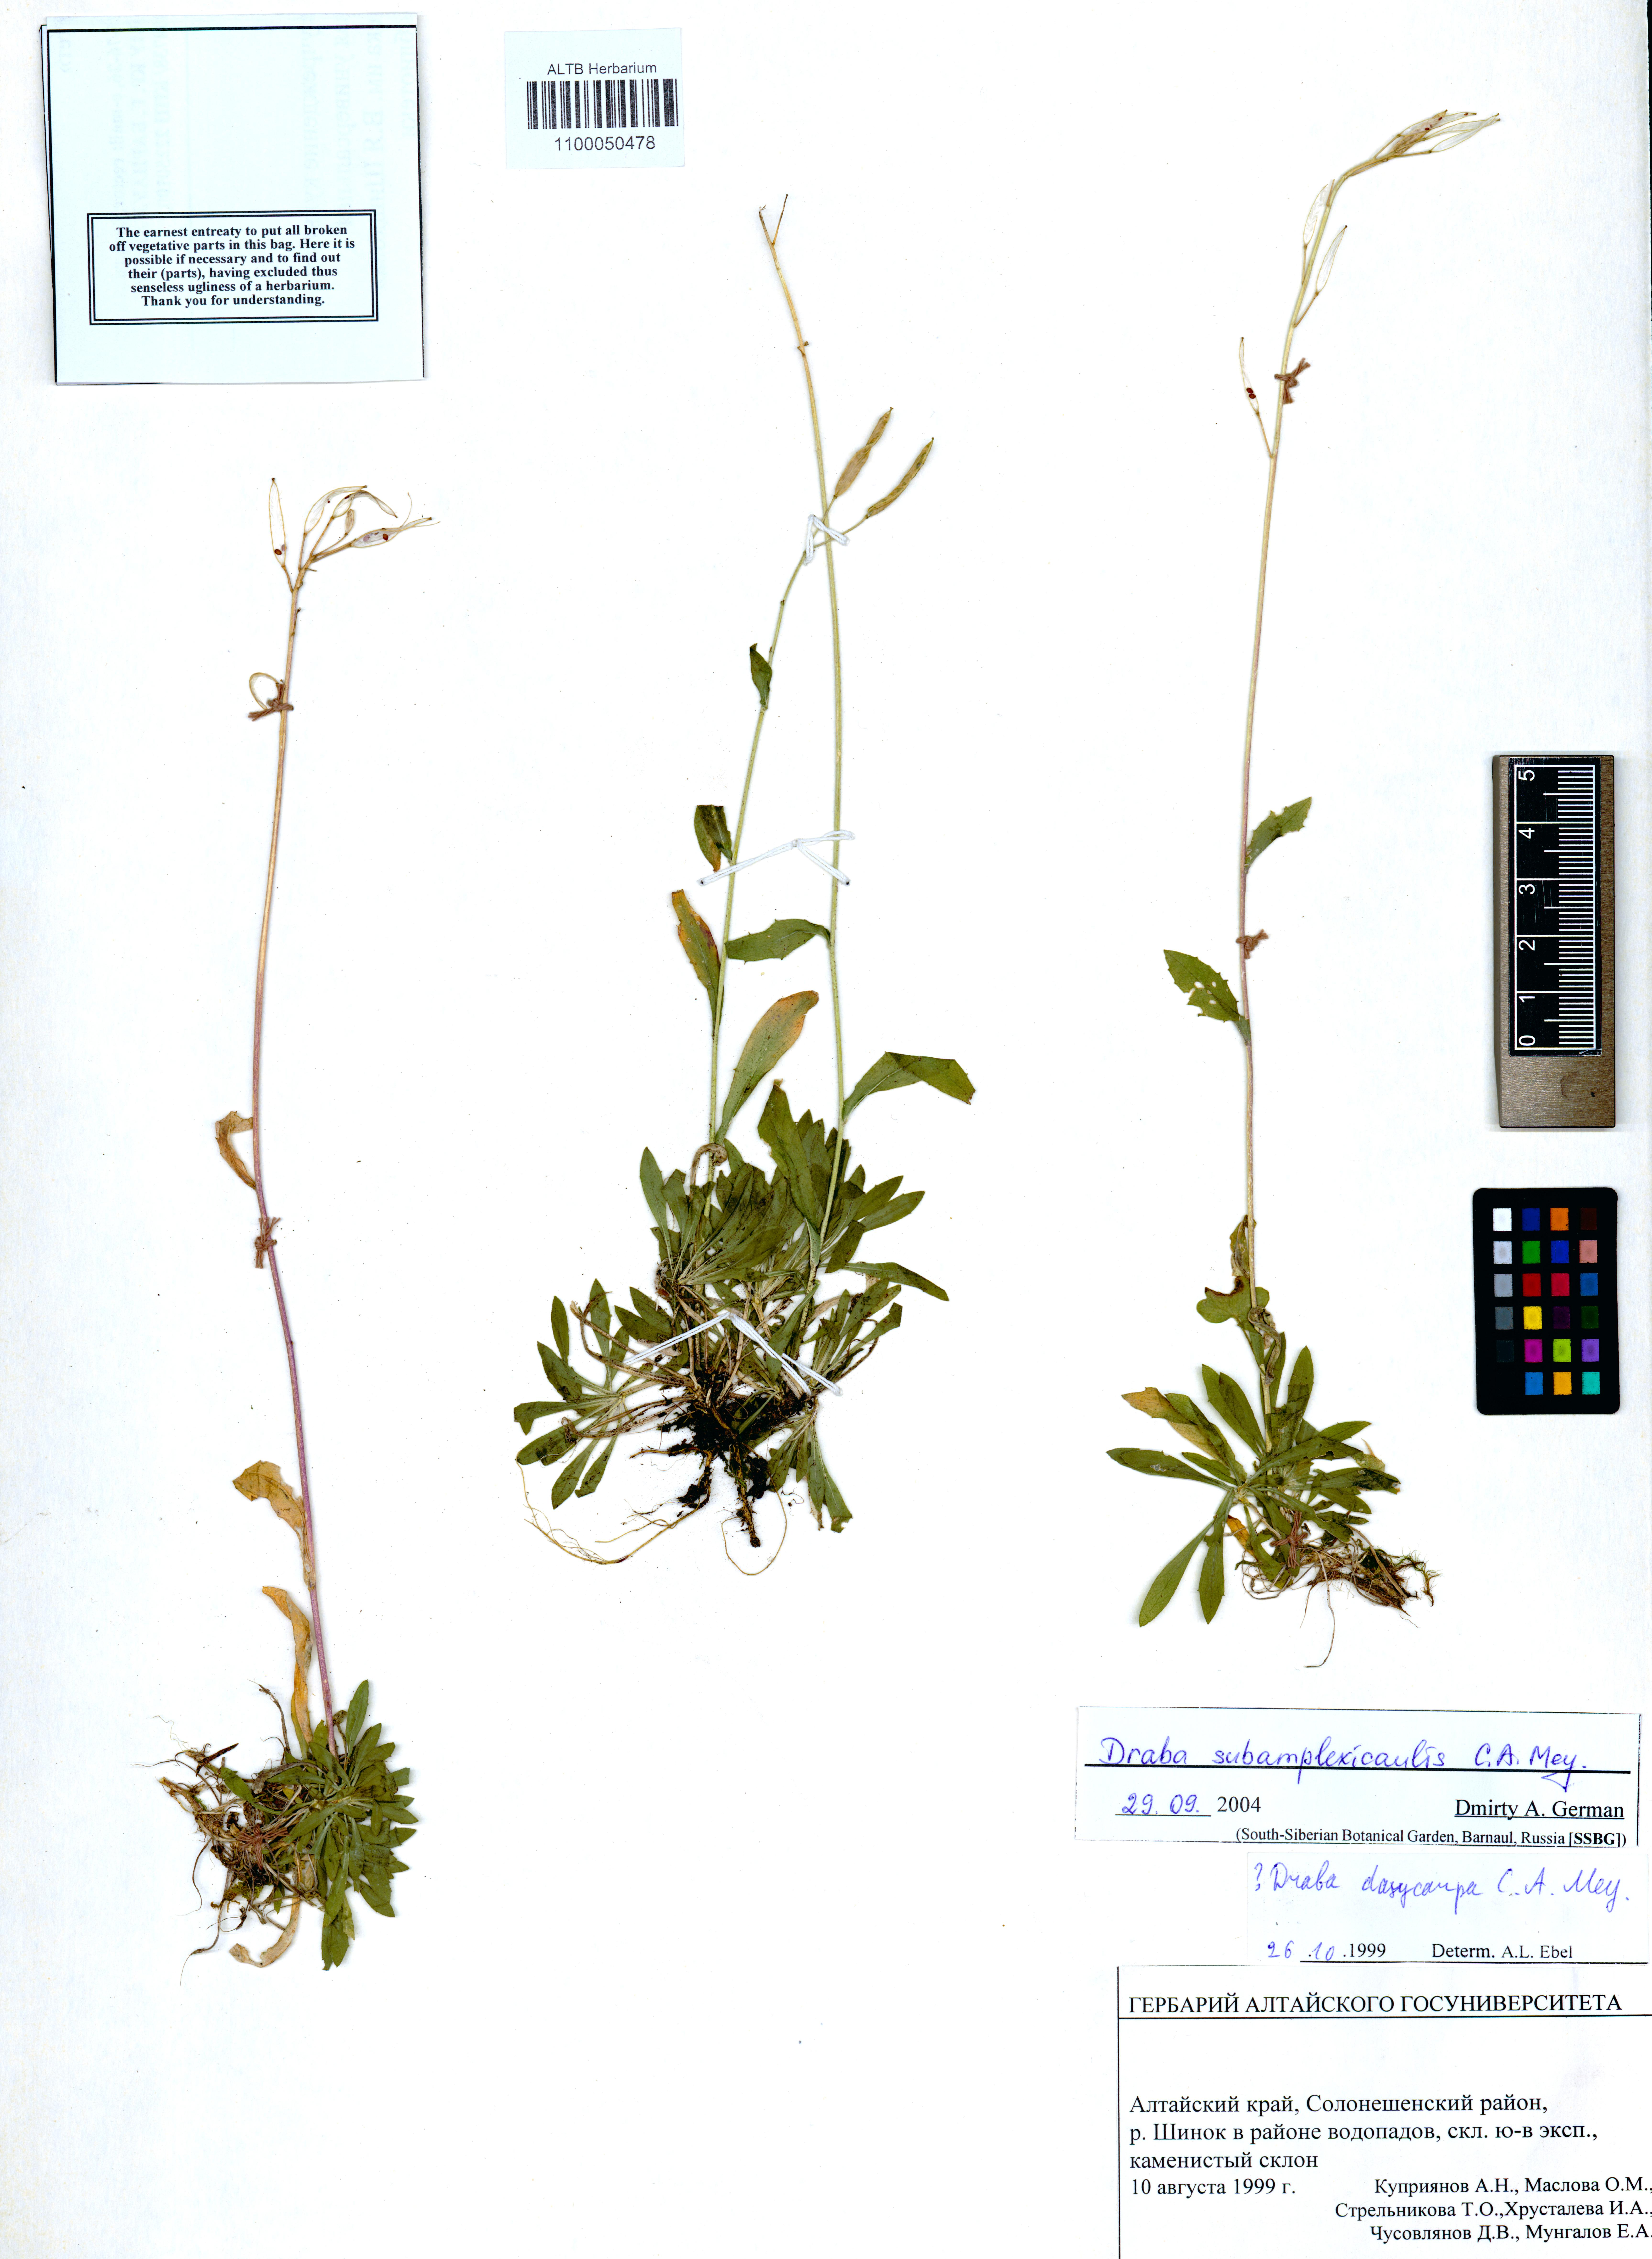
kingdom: Plantae
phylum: Tracheophyta
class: Magnoliopsida
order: Brassicales
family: Brassicaceae
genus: Draba
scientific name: Draba subamplexicaulis
